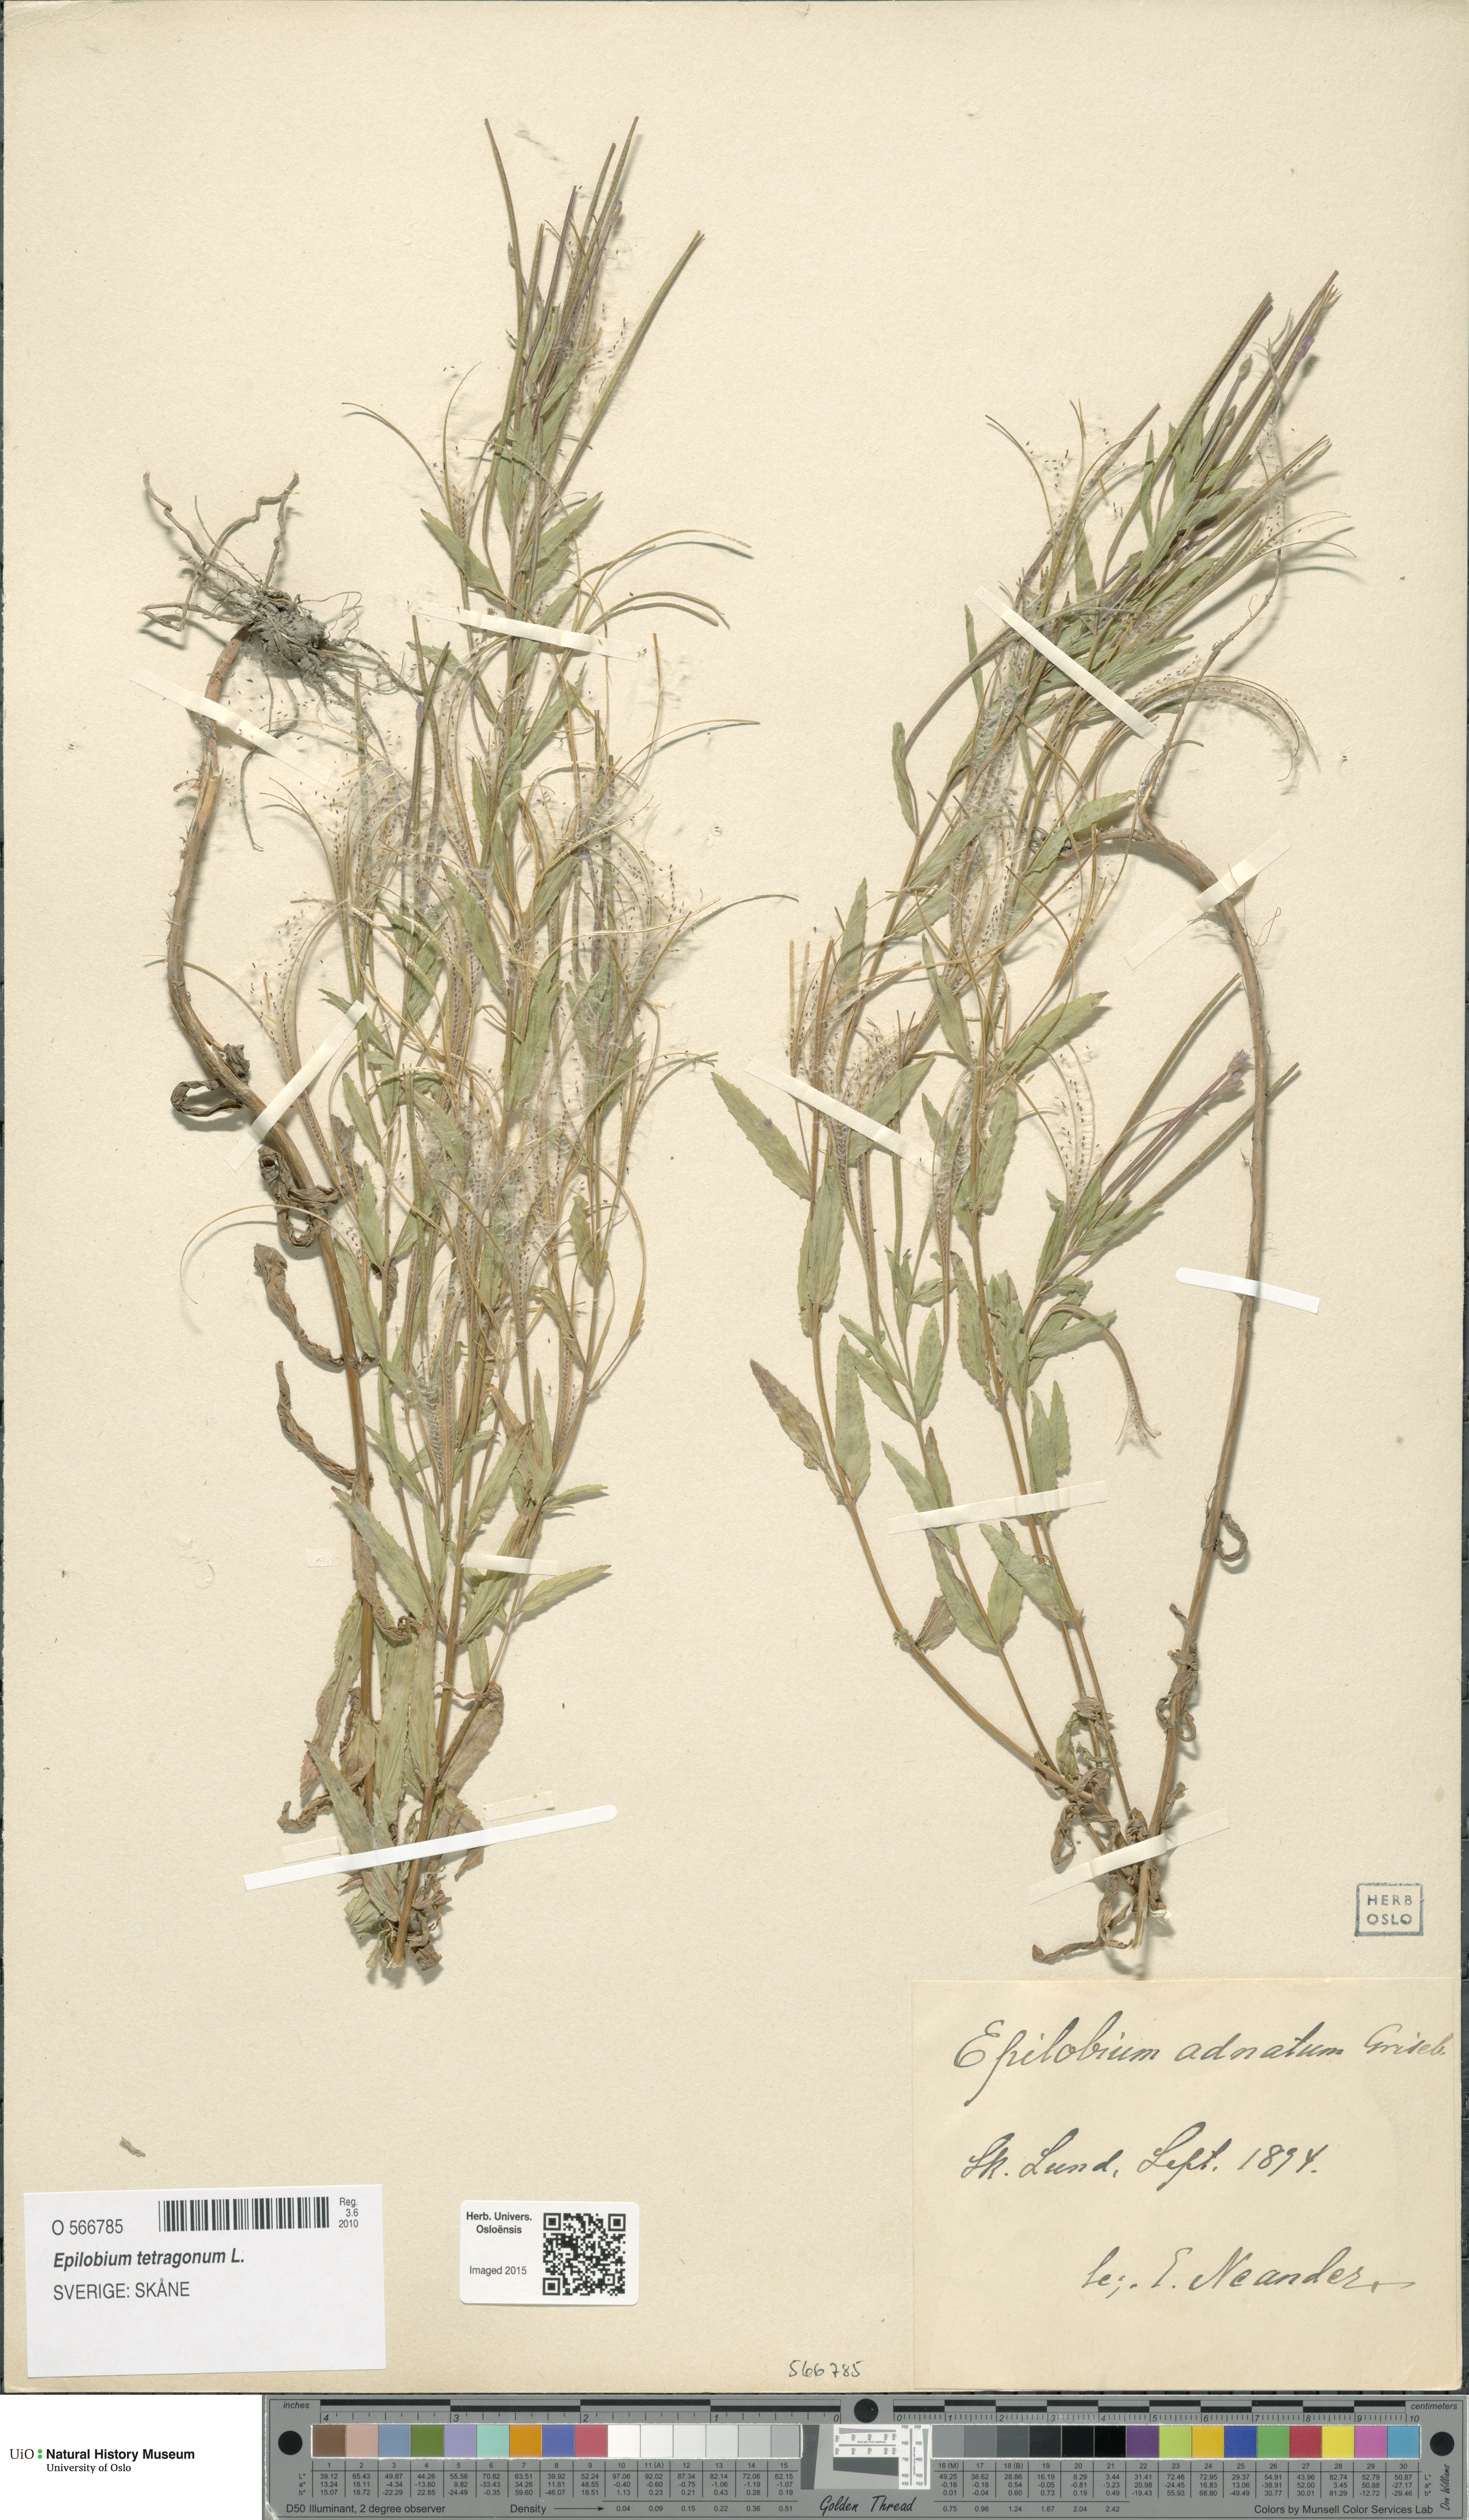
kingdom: Plantae
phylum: Tracheophyta
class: Magnoliopsida
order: Myrtales
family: Onagraceae
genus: Epilobium
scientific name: Epilobium tetragonum
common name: Square-stemmed willowherb
